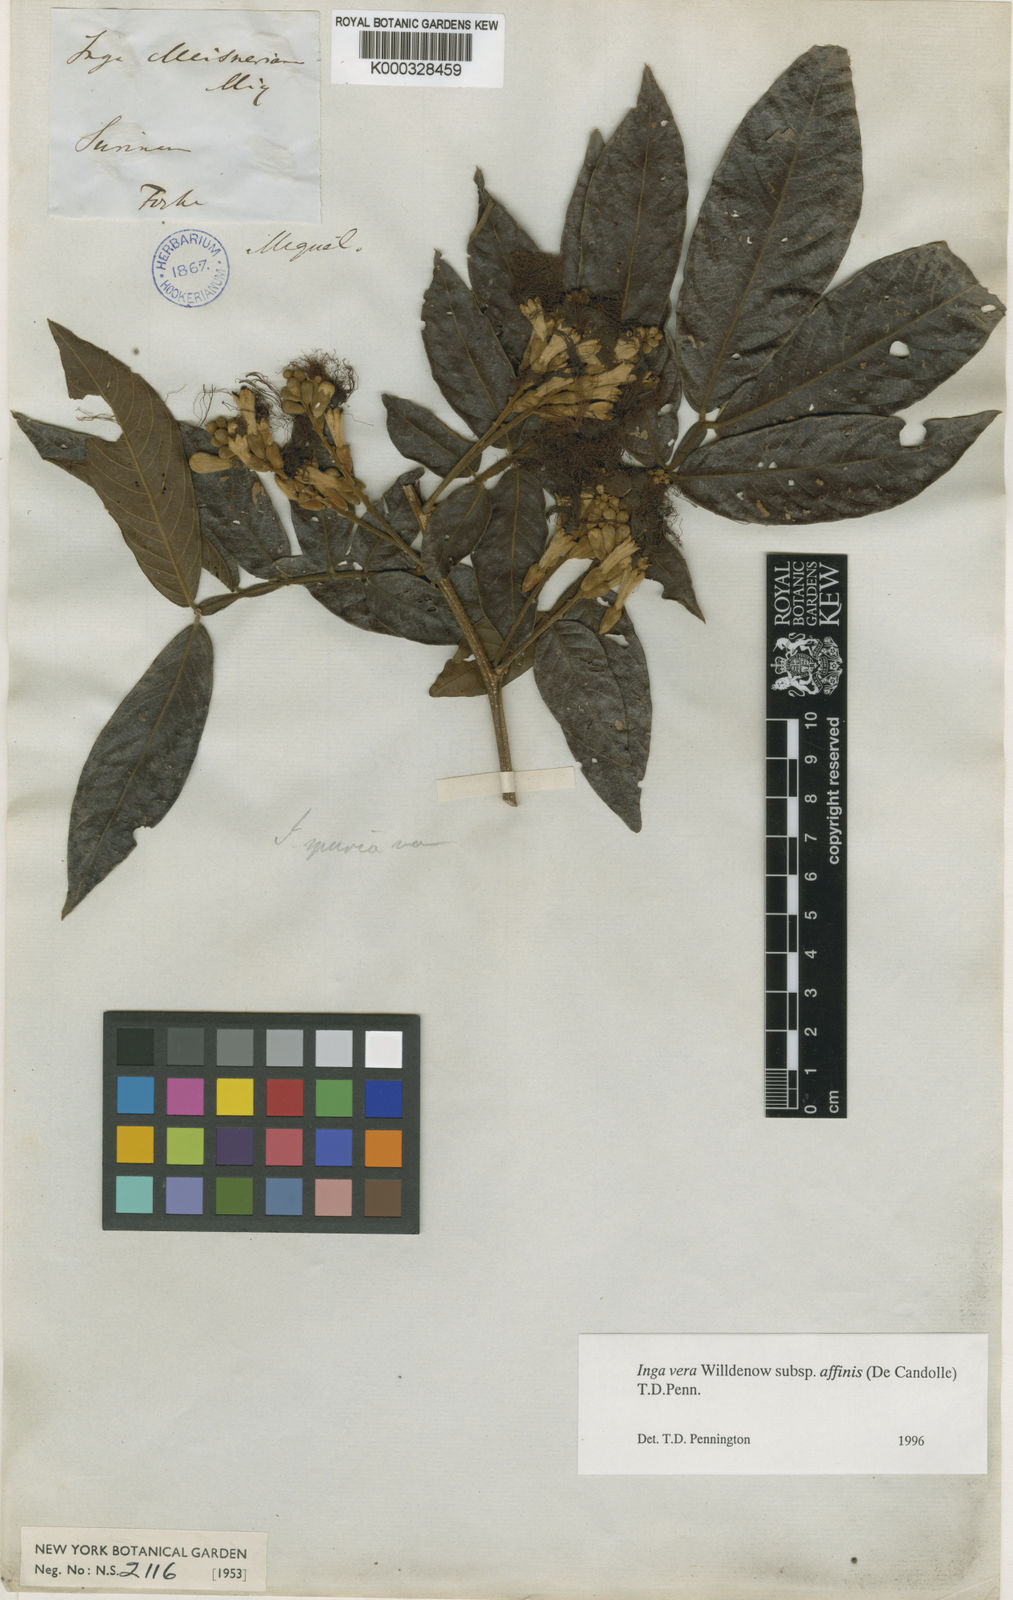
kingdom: Plantae
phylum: Tracheophyta
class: Magnoliopsida
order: Fabales
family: Fabaceae
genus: Inga
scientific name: Inga affinis
